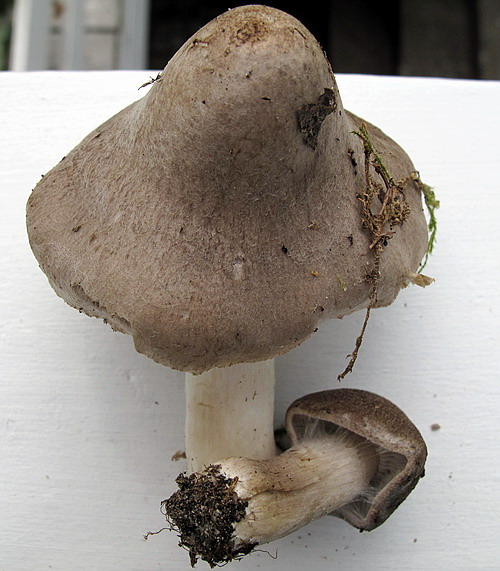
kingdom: Fungi
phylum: Basidiomycota
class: Agaricomycetes
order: Agaricales
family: Tricholomataceae
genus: Tricholoma
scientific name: Tricholoma argyraceum
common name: slør-ridderhat
